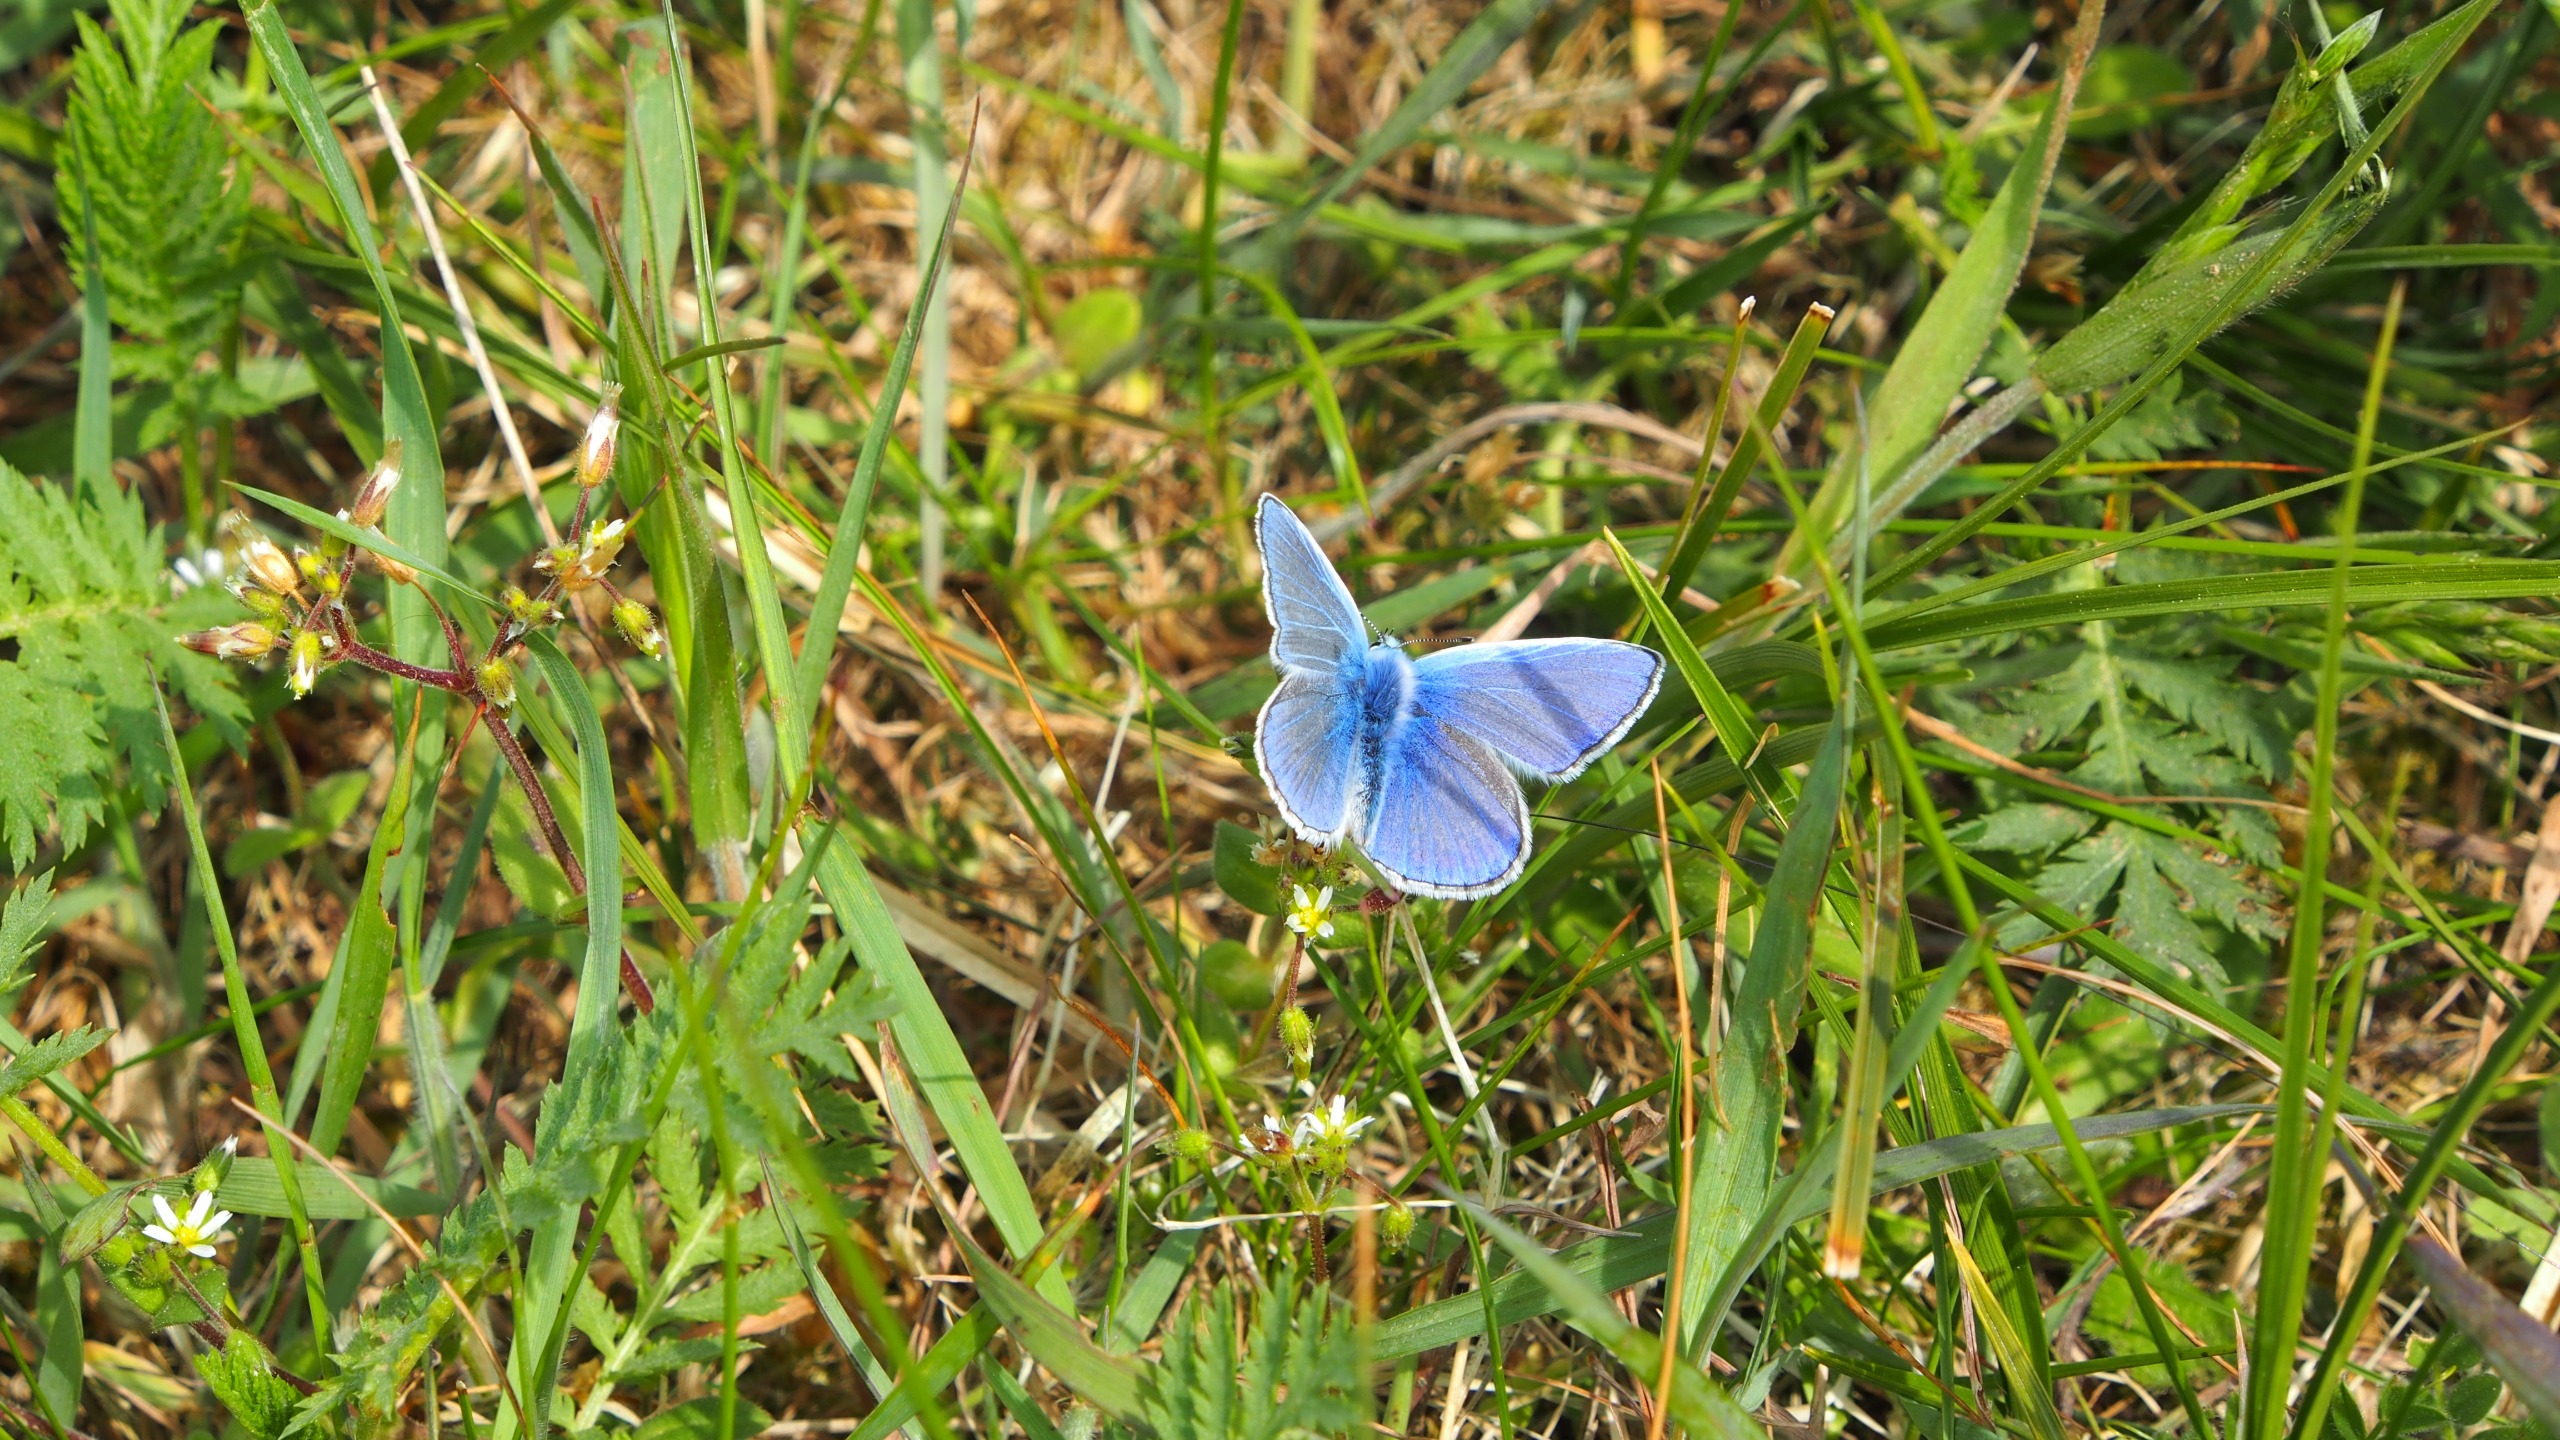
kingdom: Animalia
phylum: Arthropoda
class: Insecta
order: Lepidoptera
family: Lycaenidae
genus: Polyommatus
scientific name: Polyommatus icarus
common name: Almindelig blåfugl
